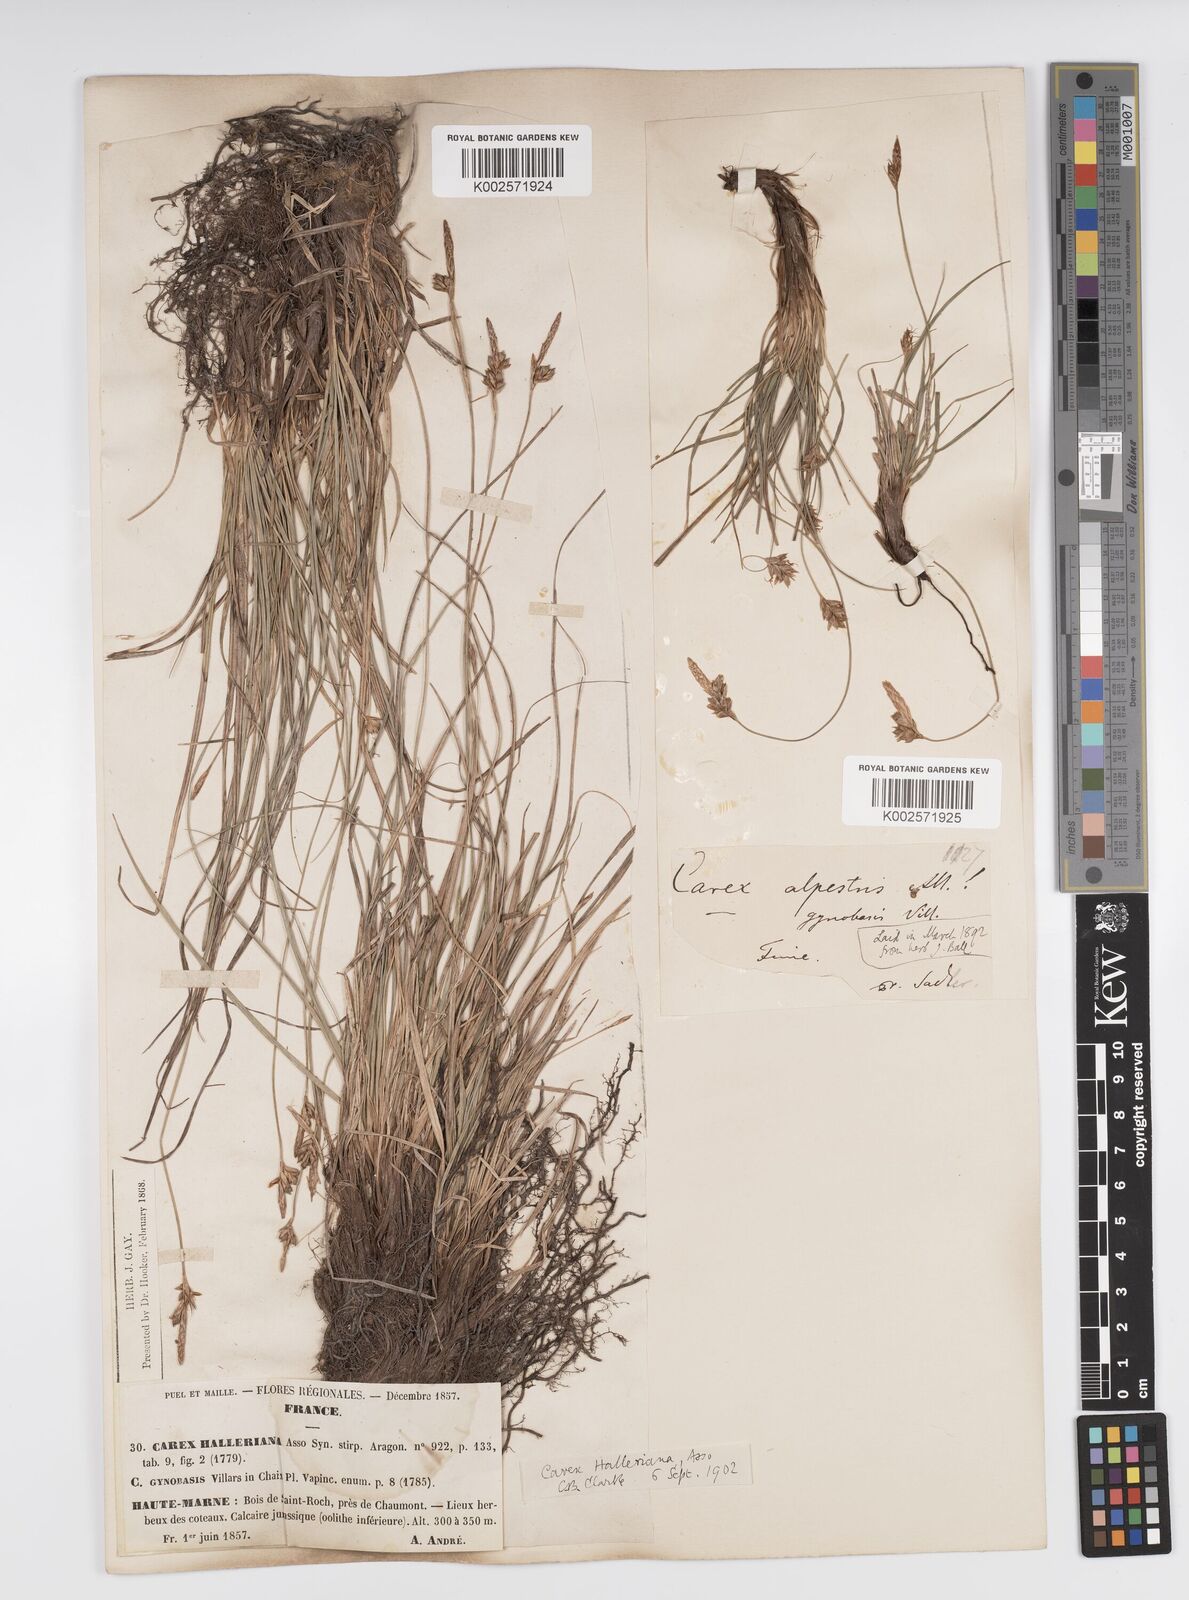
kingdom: Plantae
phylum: Tracheophyta
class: Liliopsida
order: Poales
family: Cyperaceae
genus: Carex
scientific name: Carex halleriana
